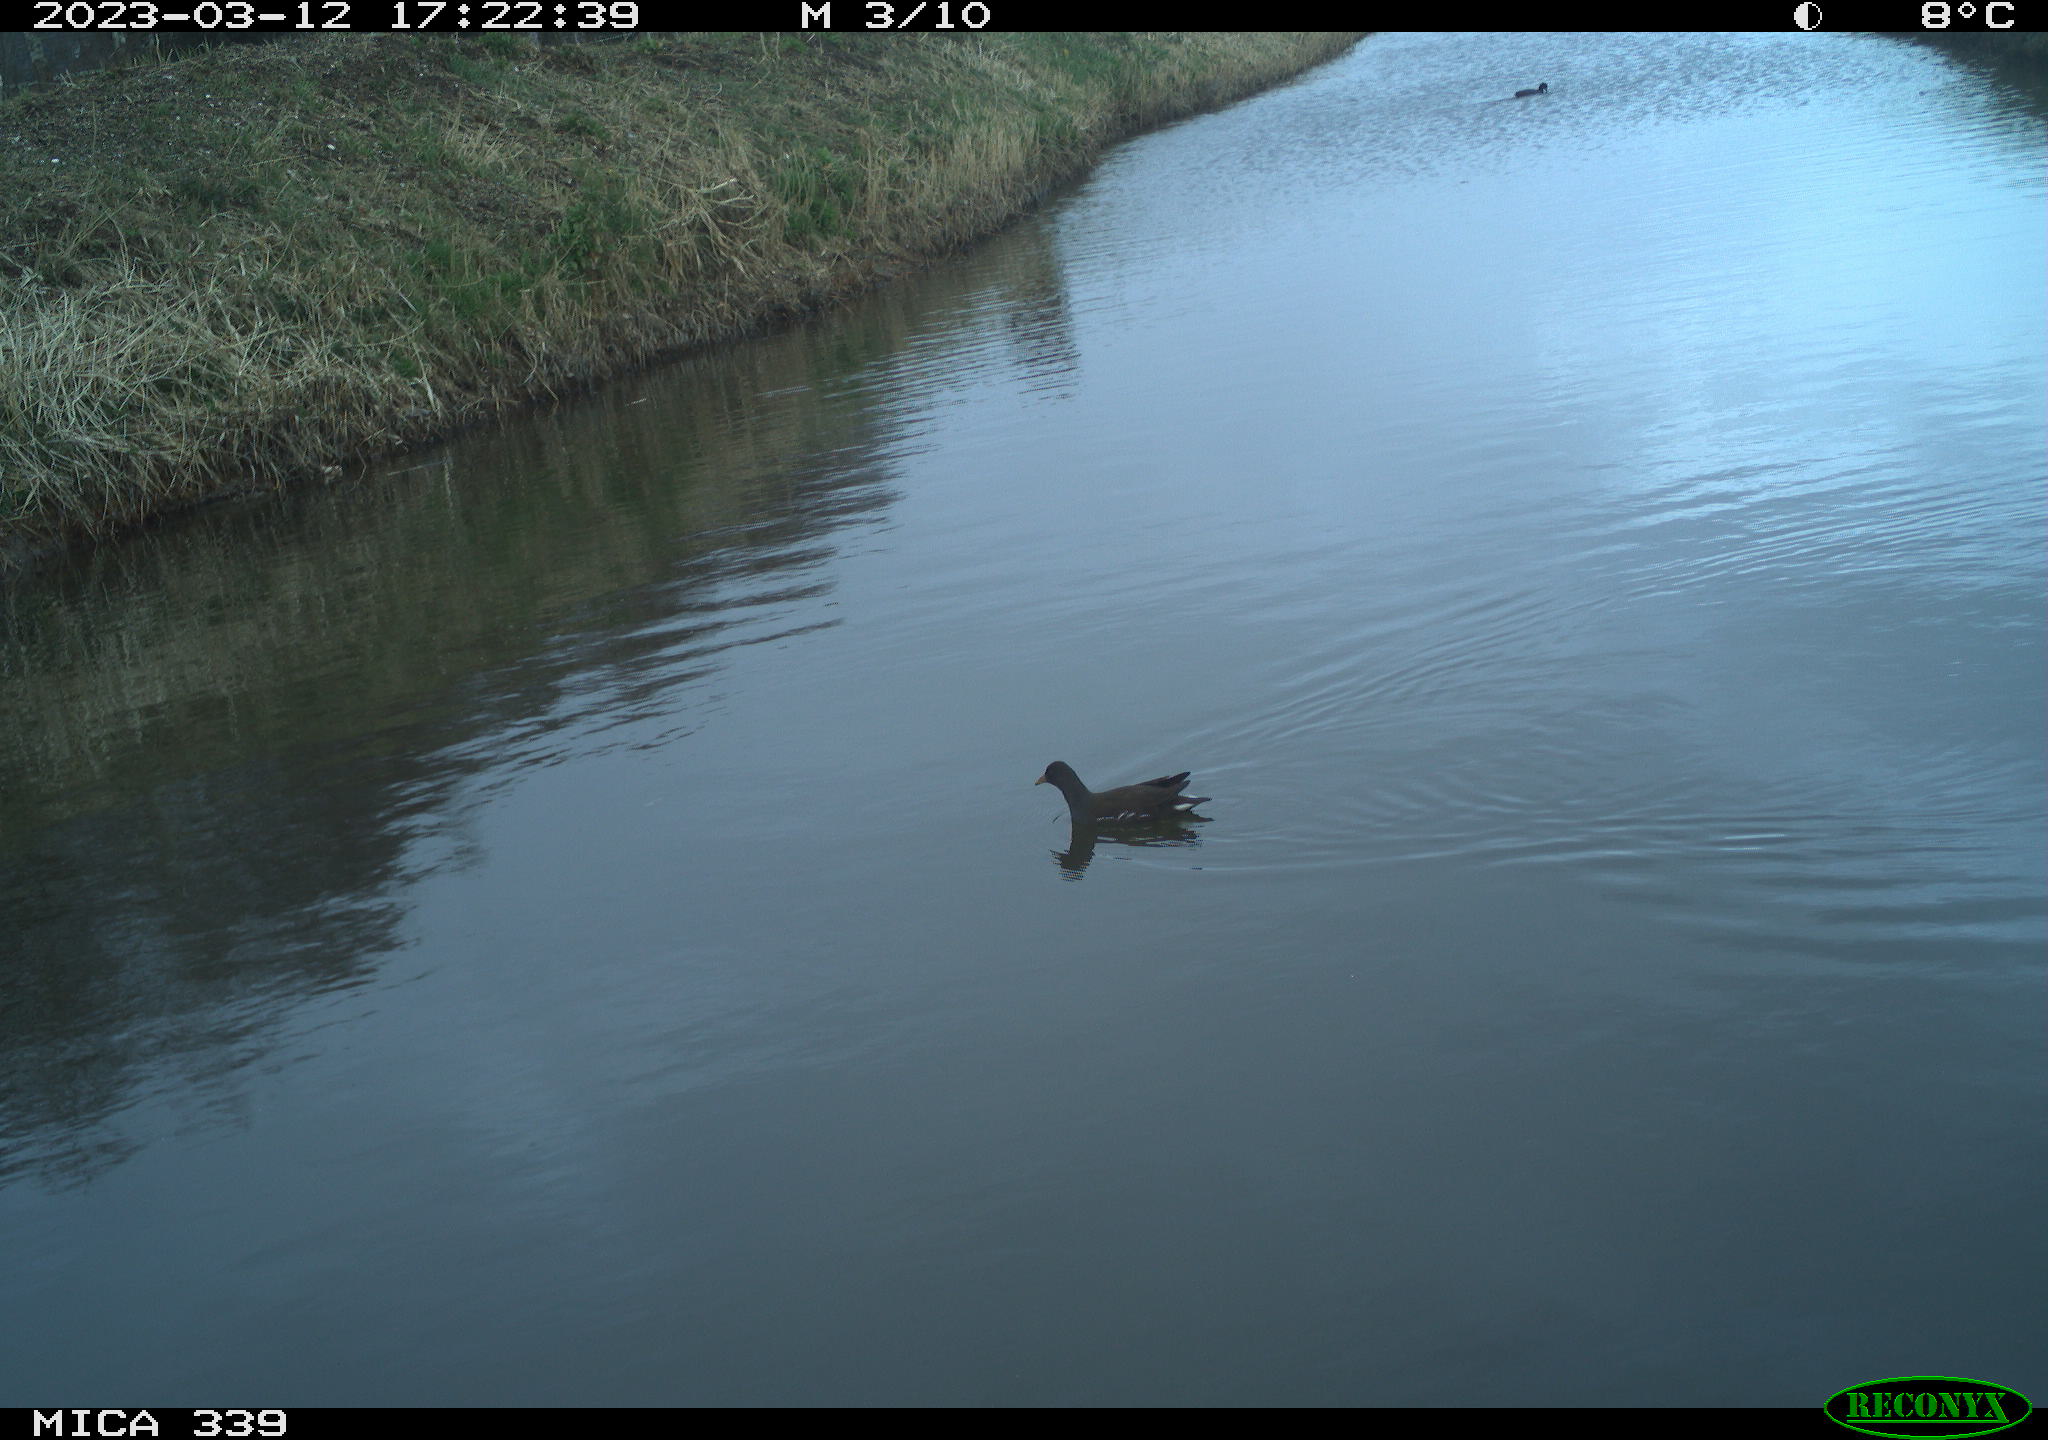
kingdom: Animalia
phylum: Chordata
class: Aves
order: Gruiformes
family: Rallidae
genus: Gallinula
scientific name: Gallinula chloropus
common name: Common moorhen
